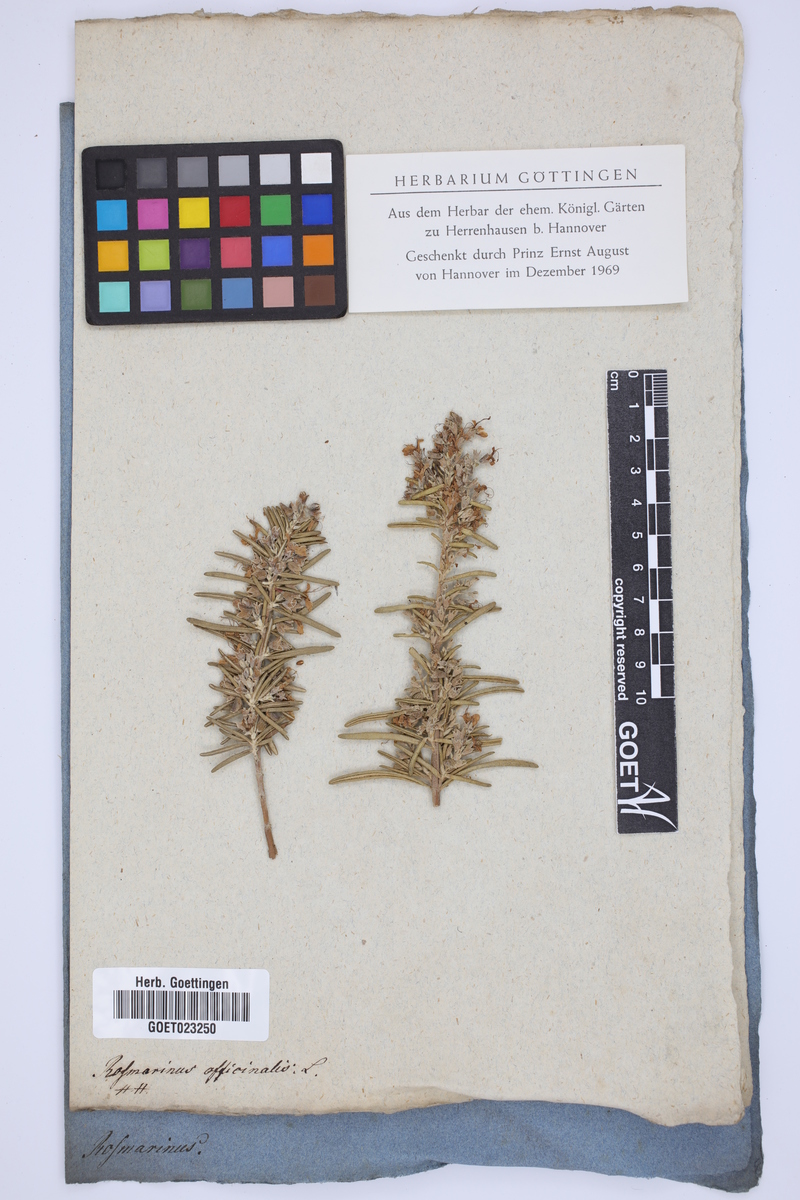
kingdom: Plantae
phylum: Tracheophyta
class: Magnoliopsida
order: Lamiales
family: Lamiaceae
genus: Salvia
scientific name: Salvia rosmarinus
